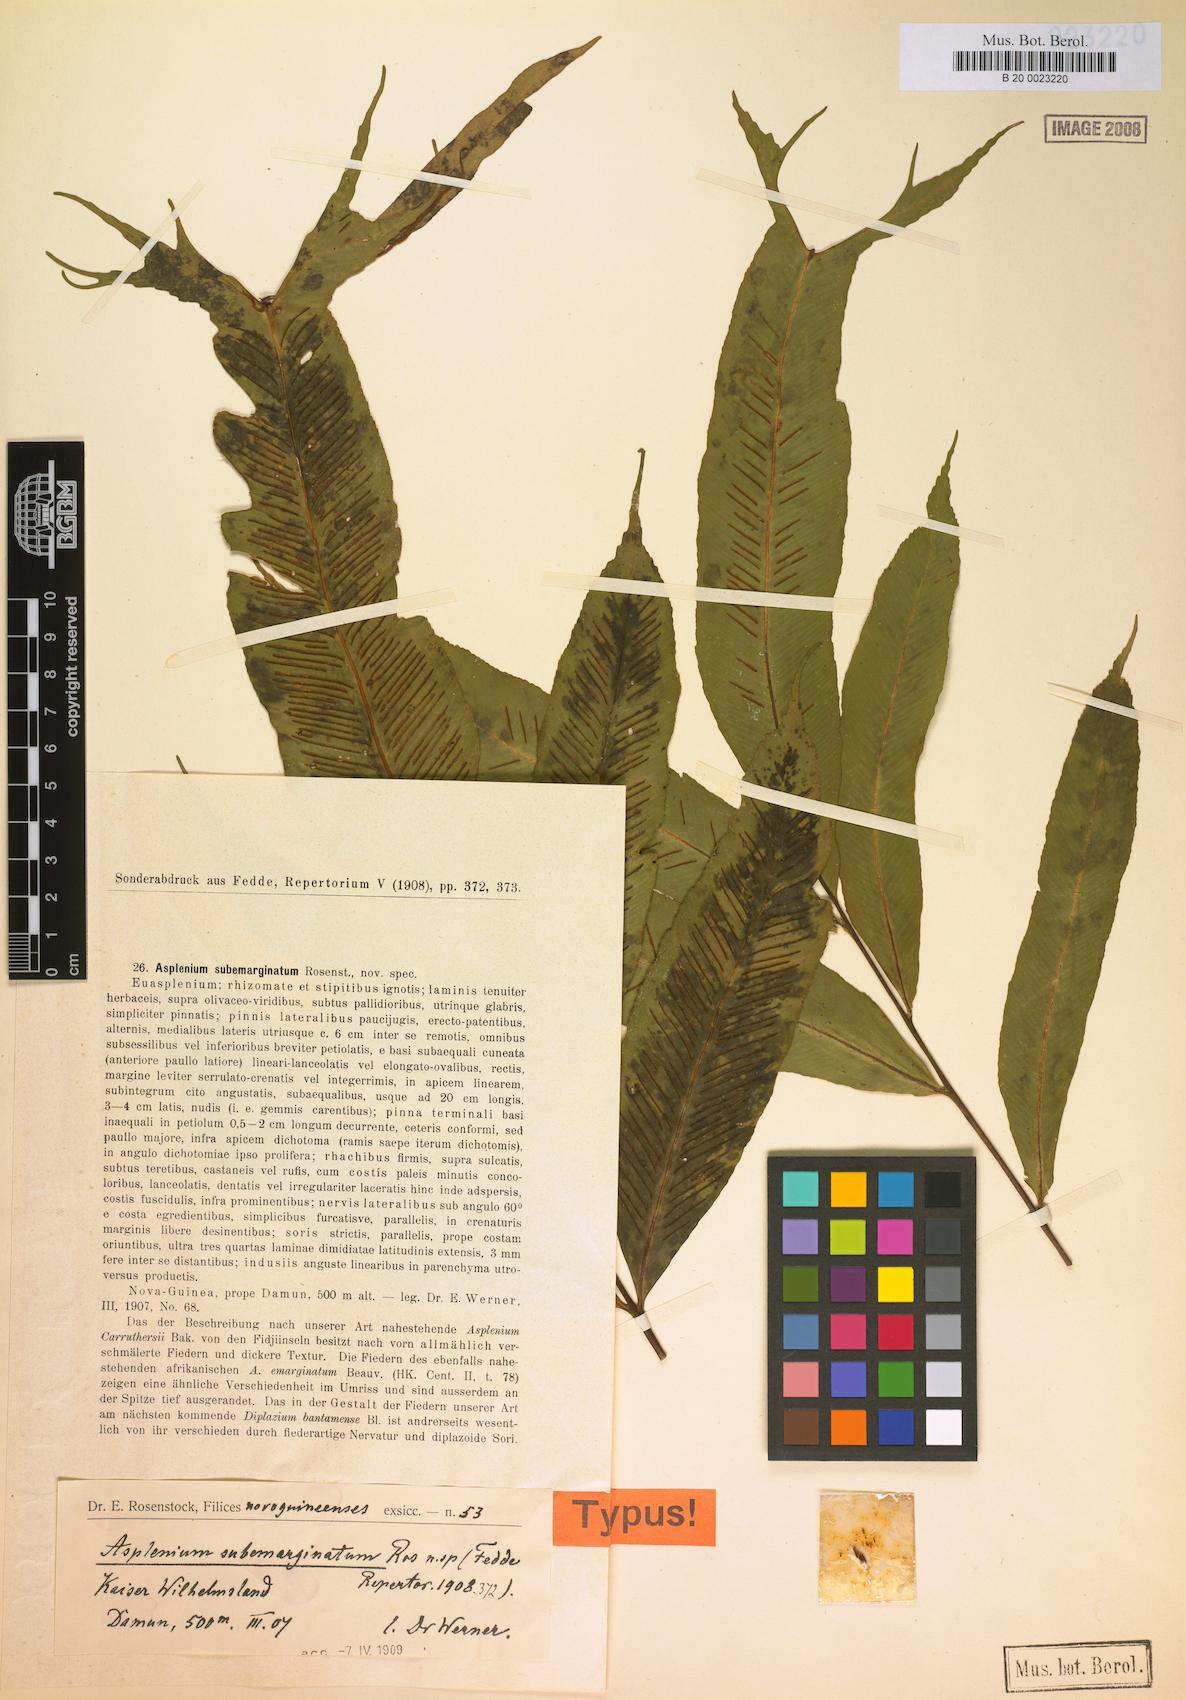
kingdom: Plantae
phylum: Tracheophyta
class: Polypodiopsida
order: Polypodiales
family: Aspleniaceae
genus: Asplenium
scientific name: Asplenium subemarginatum
